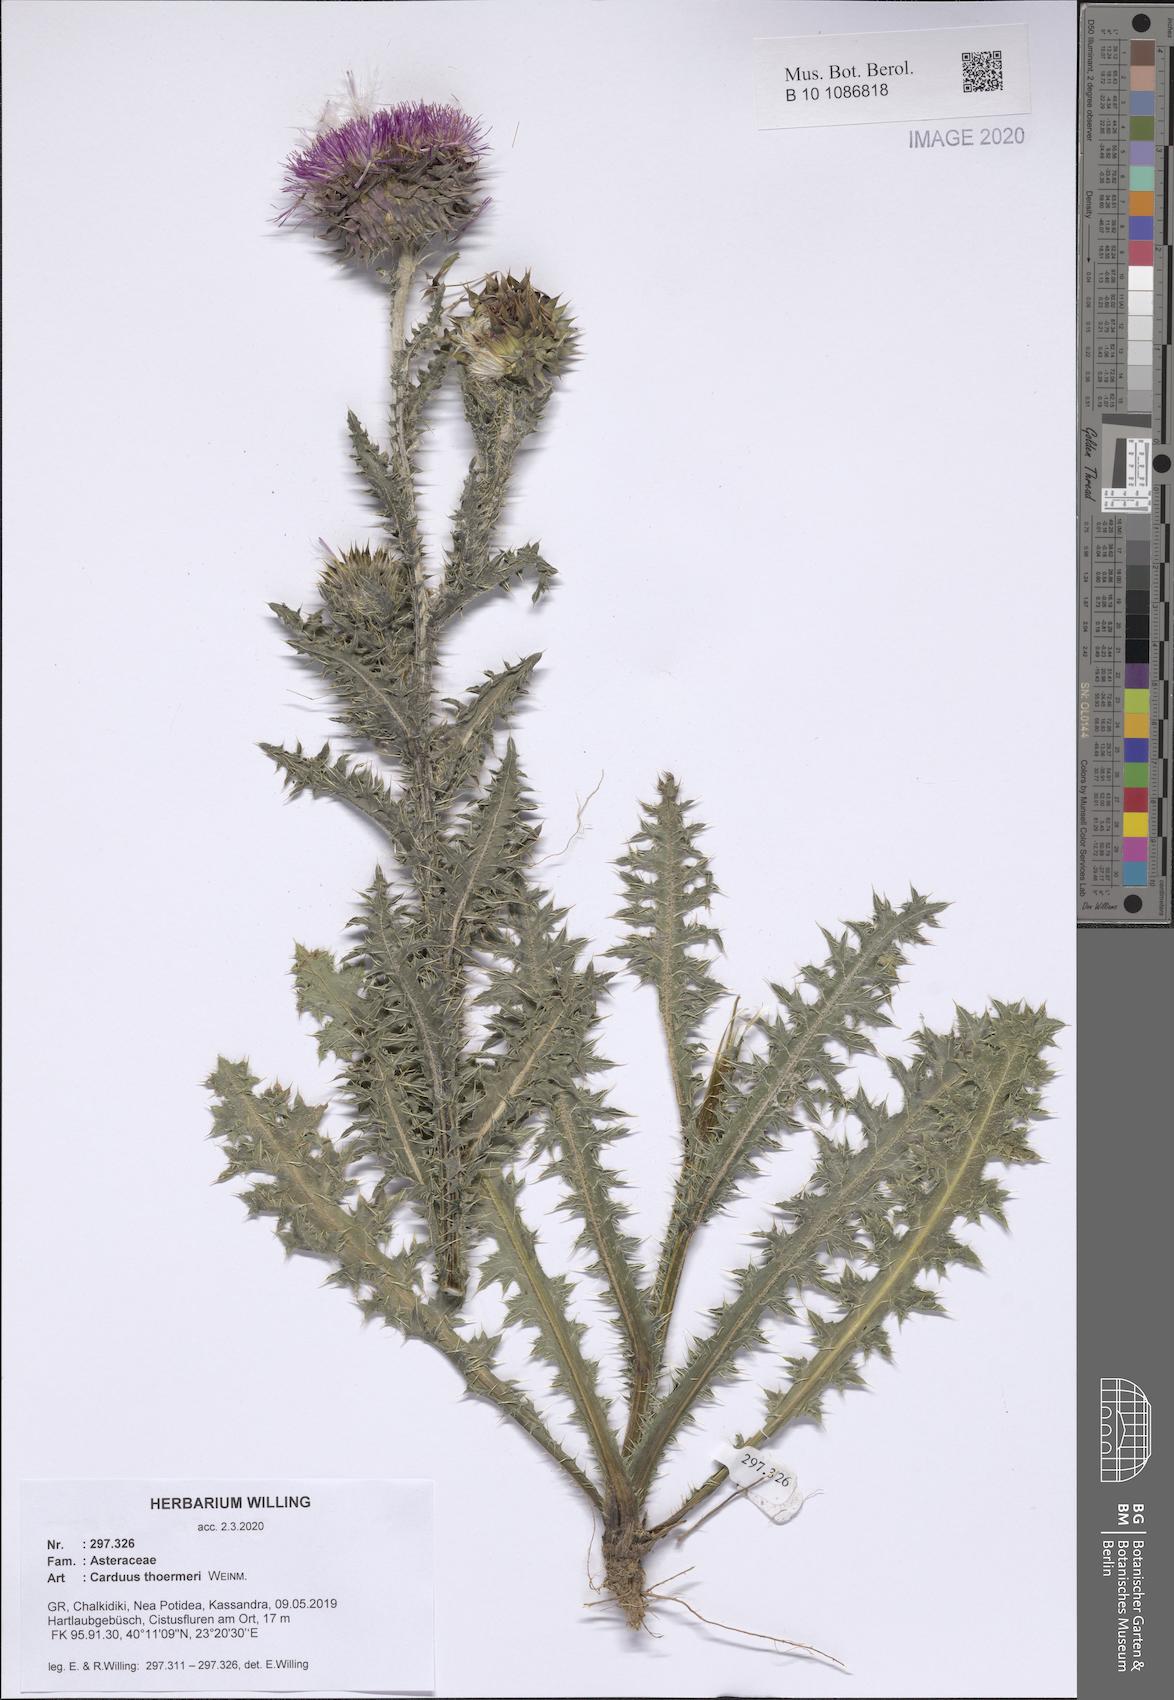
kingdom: Plantae
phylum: Tracheophyta
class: Magnoliopsida
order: Asterales
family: Asteraceae
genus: Carduus
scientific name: Carduus nutans
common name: Musk thistle
